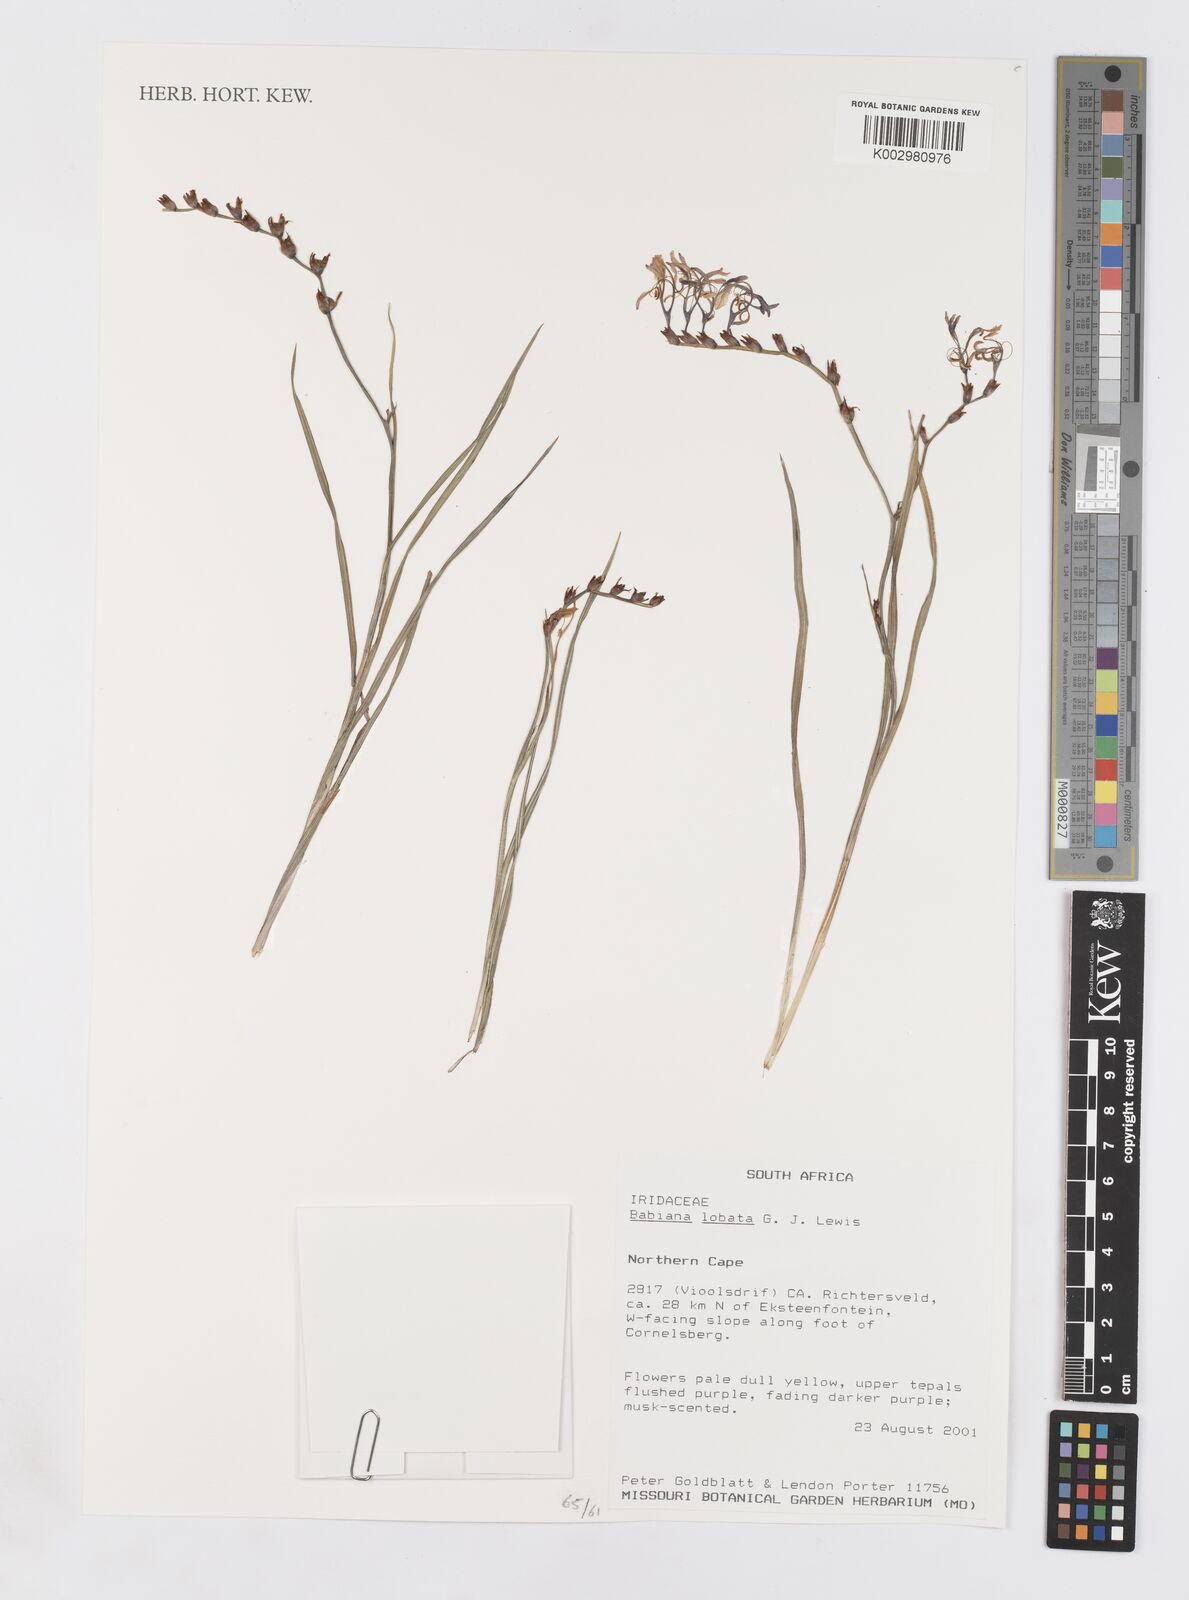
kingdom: Plantae
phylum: Tracheophyta
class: Liliopsida
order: Asparagales
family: Iridaceae
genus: Babiana
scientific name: Babiana lobata
